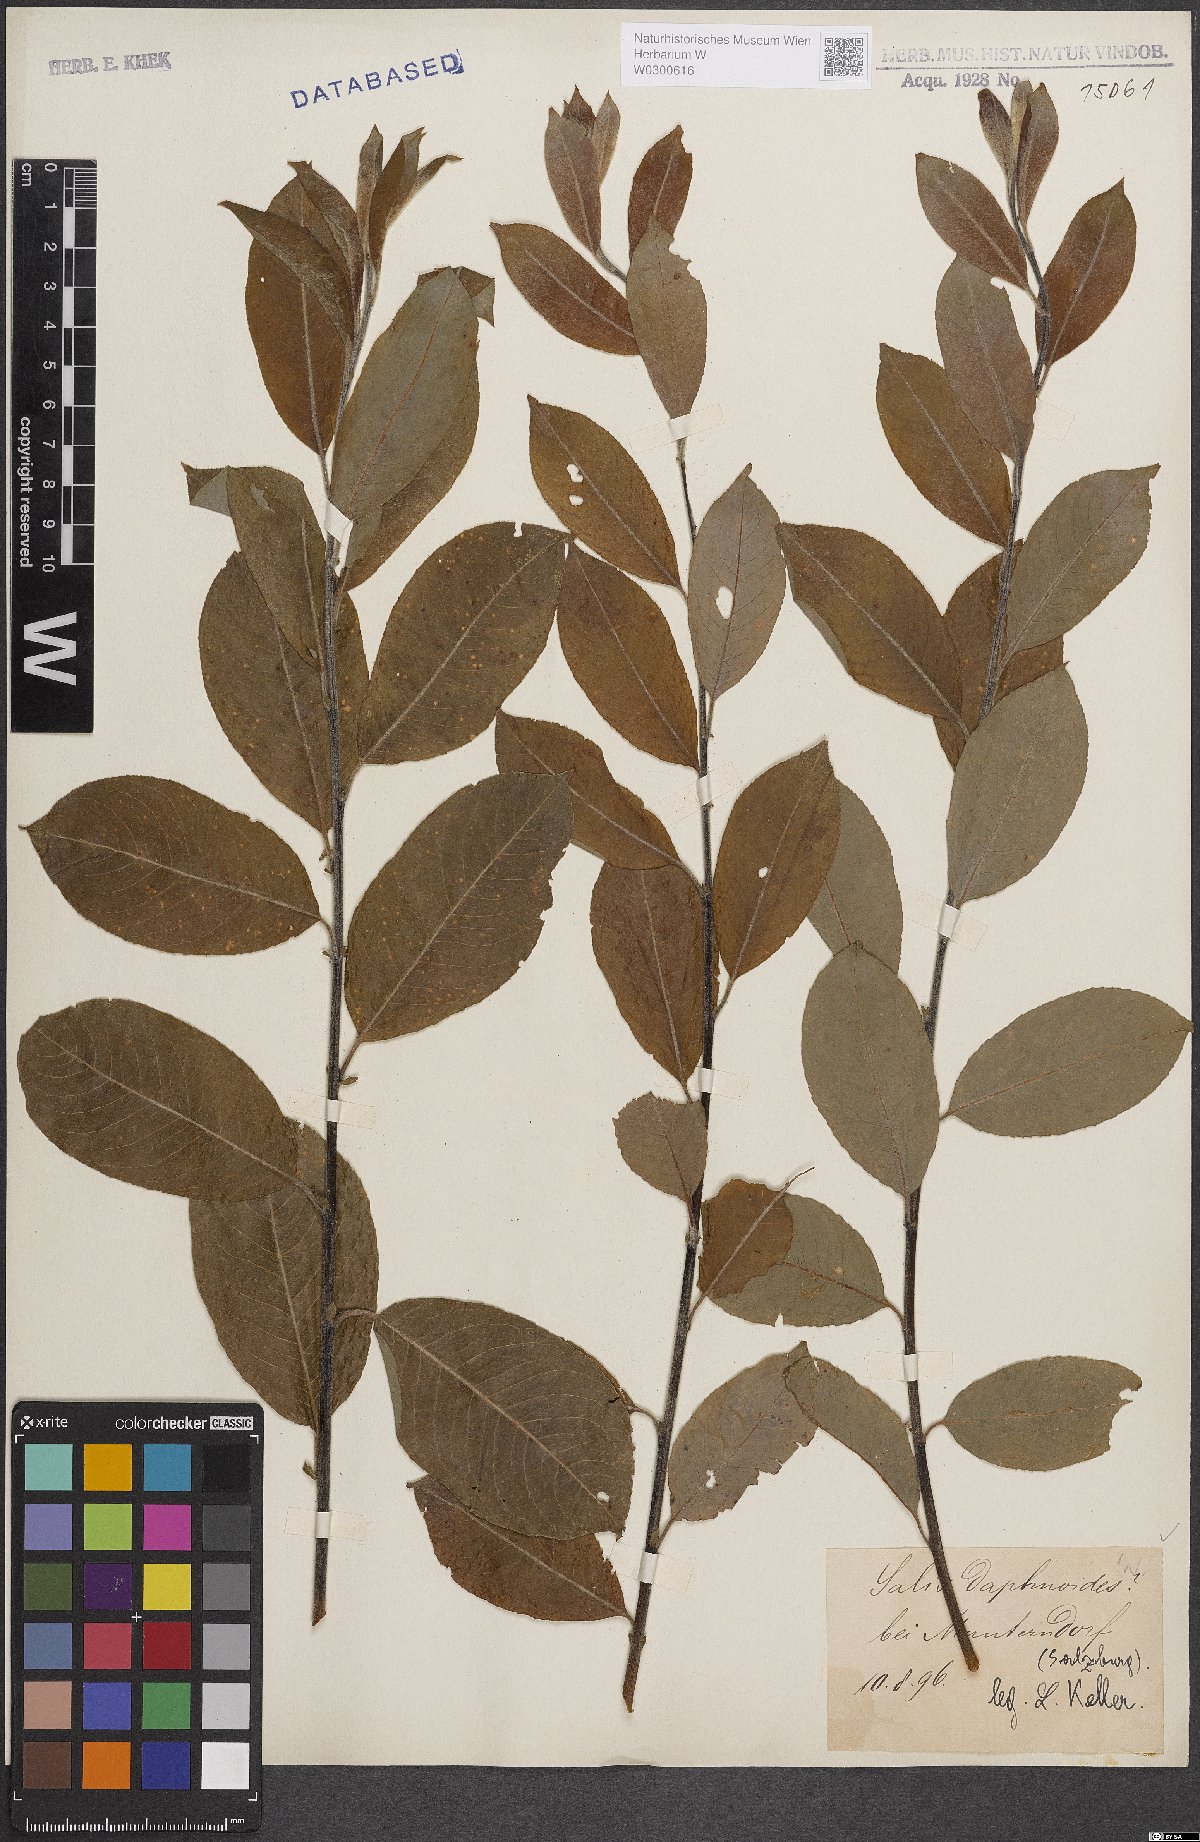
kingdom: Plantae
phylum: Tracheophyta
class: Magnoliopsida
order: Malpighiales
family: Salicaceae
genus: Salix
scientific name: Salix daphnoides
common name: European violet-willow
